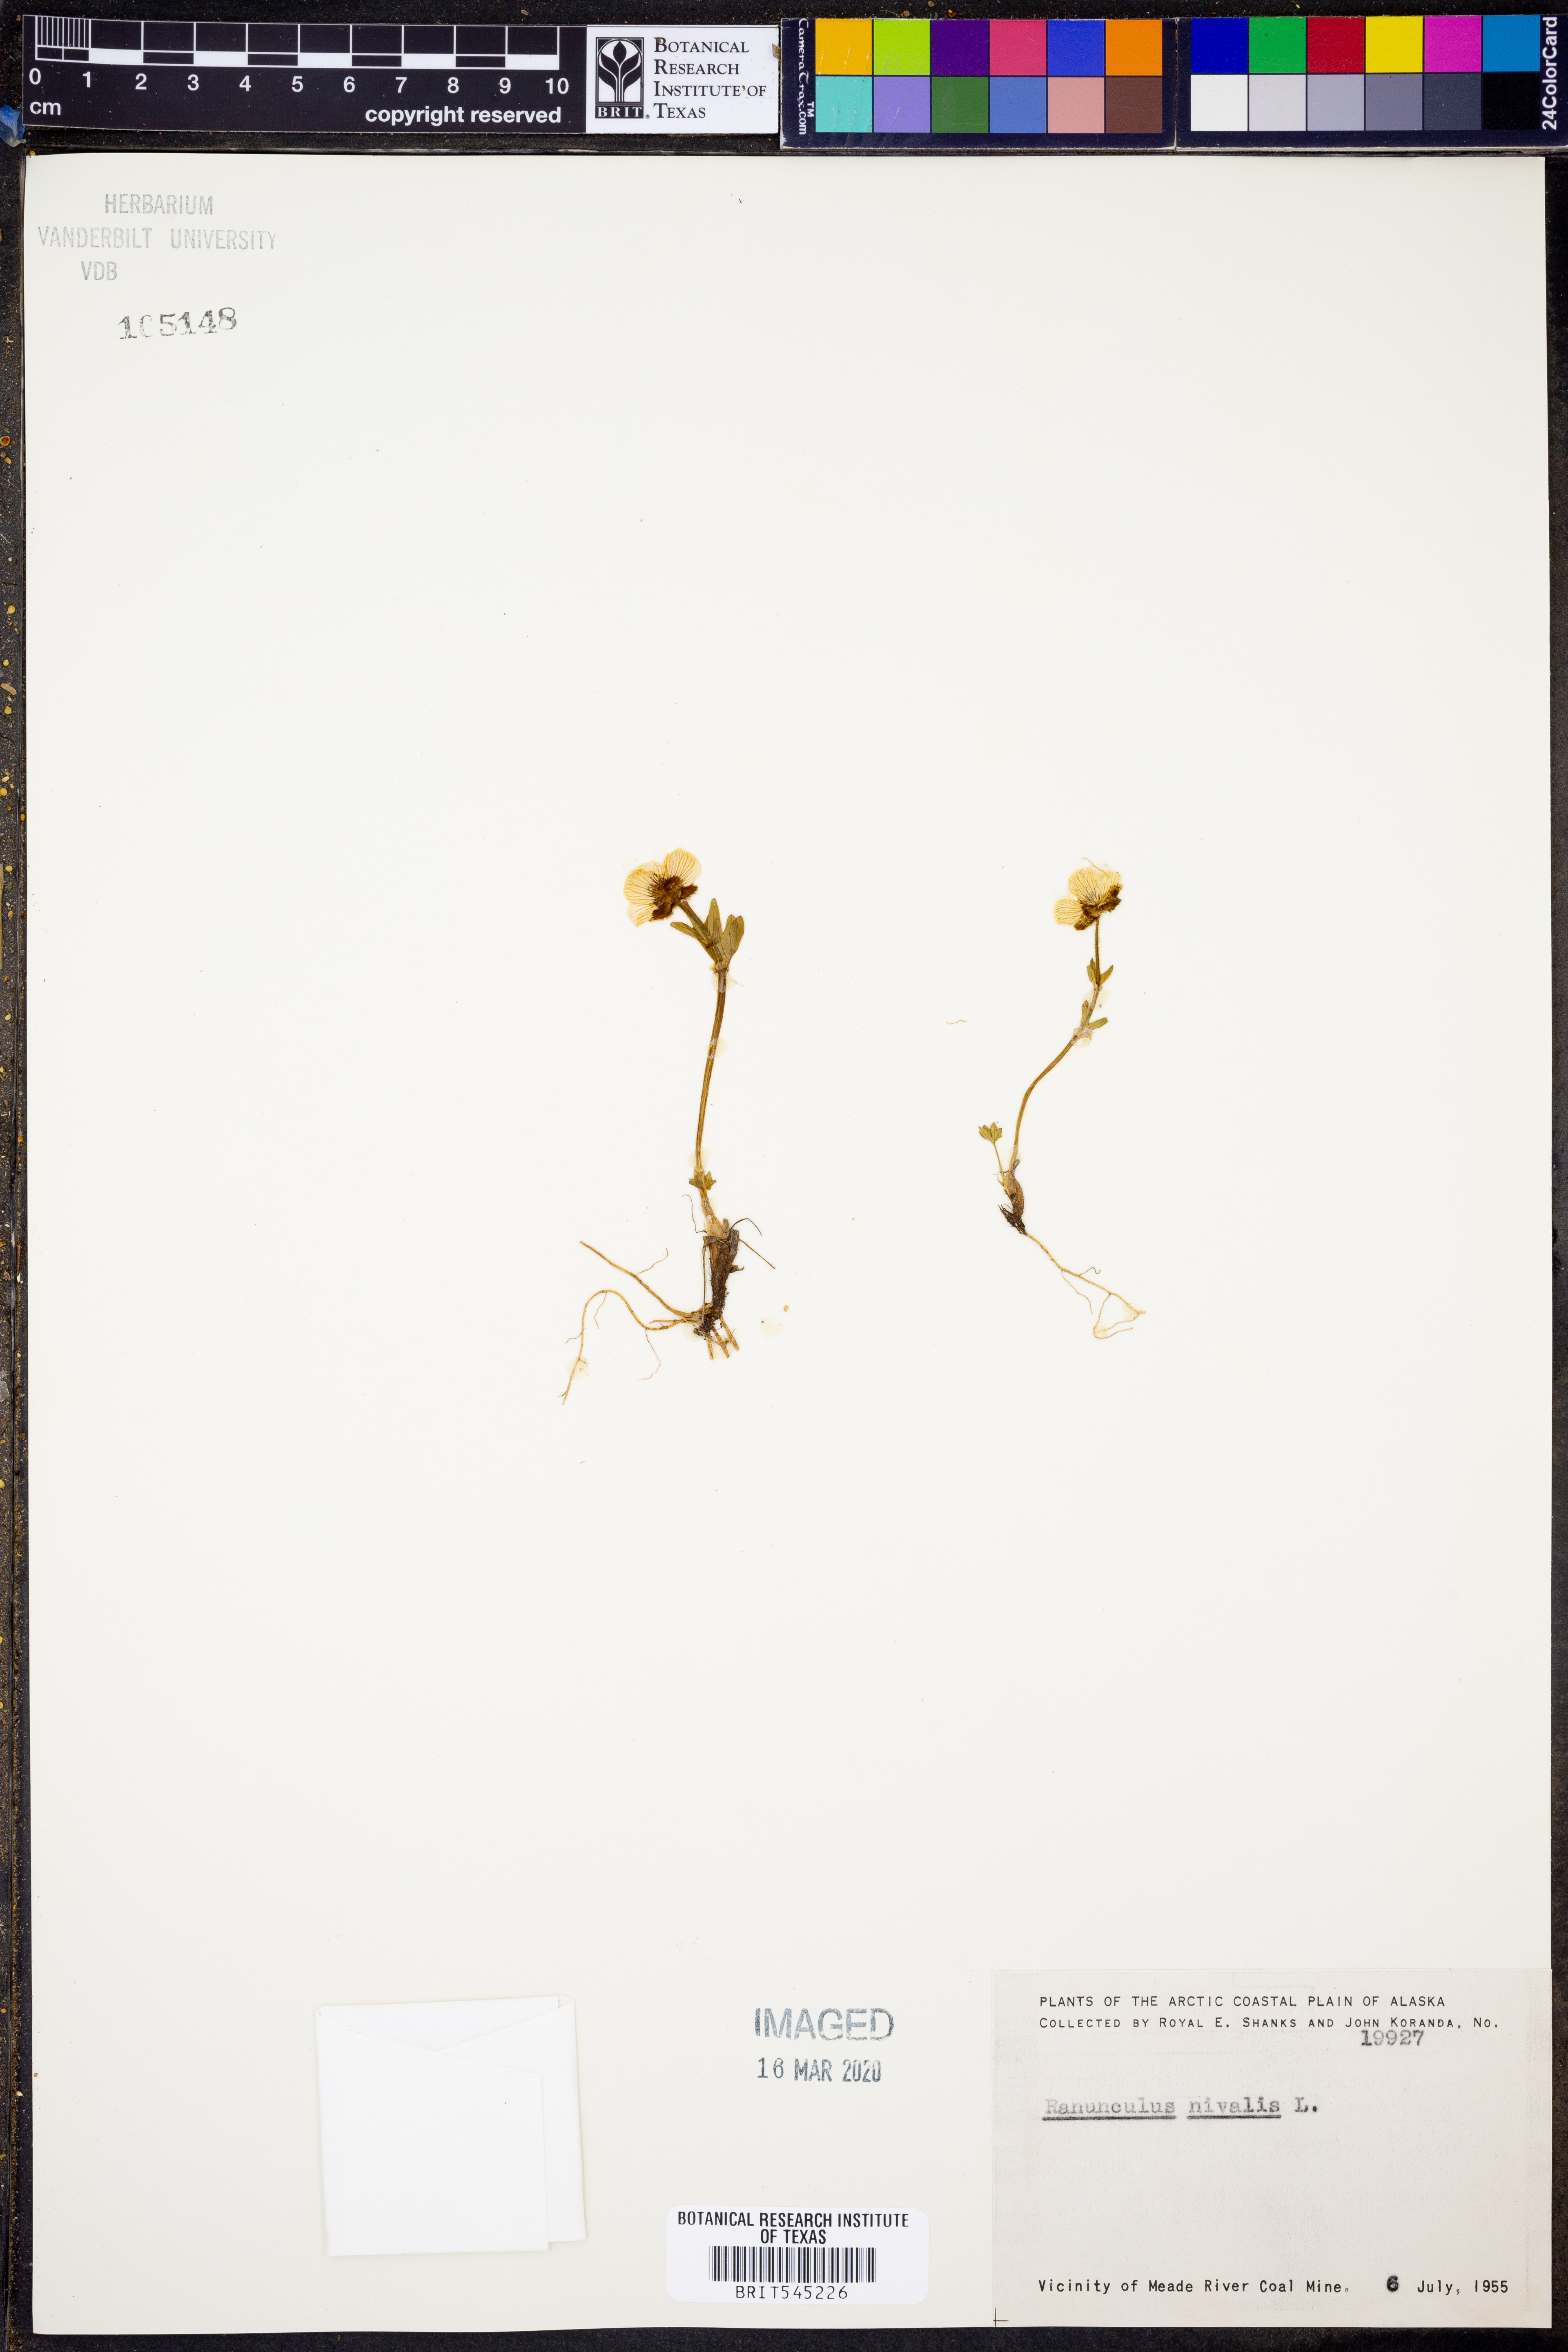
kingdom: Plantae
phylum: Tracheophyta
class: Magnoliopsida
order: Ranunculales
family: Ranunculaceae
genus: Ranunculus
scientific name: Ranunculus nivalis
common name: Snow buttercup
